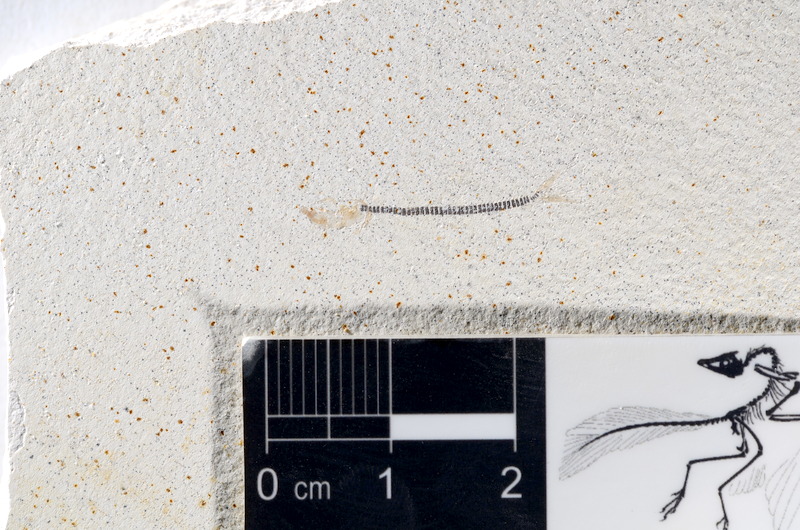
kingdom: Animalia
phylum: Chordata
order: Salmoniformes
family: Orthogonikleithridae
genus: Orthogonikleithrus
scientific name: Orthogonikleithrus hoelli
